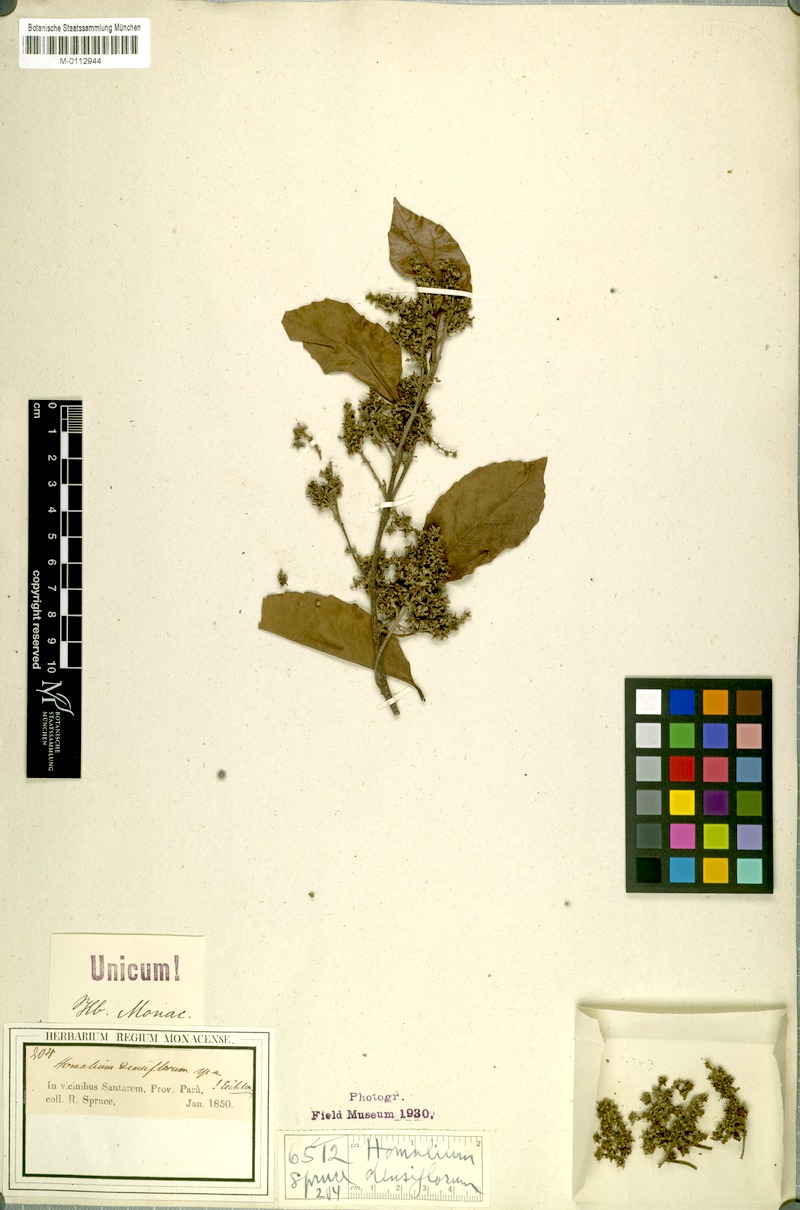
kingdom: Plantae
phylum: Tracheophyta
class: Magnoliopsida
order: Malpighiales
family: Salicaceae
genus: Homalium
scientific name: Homalium guianense
